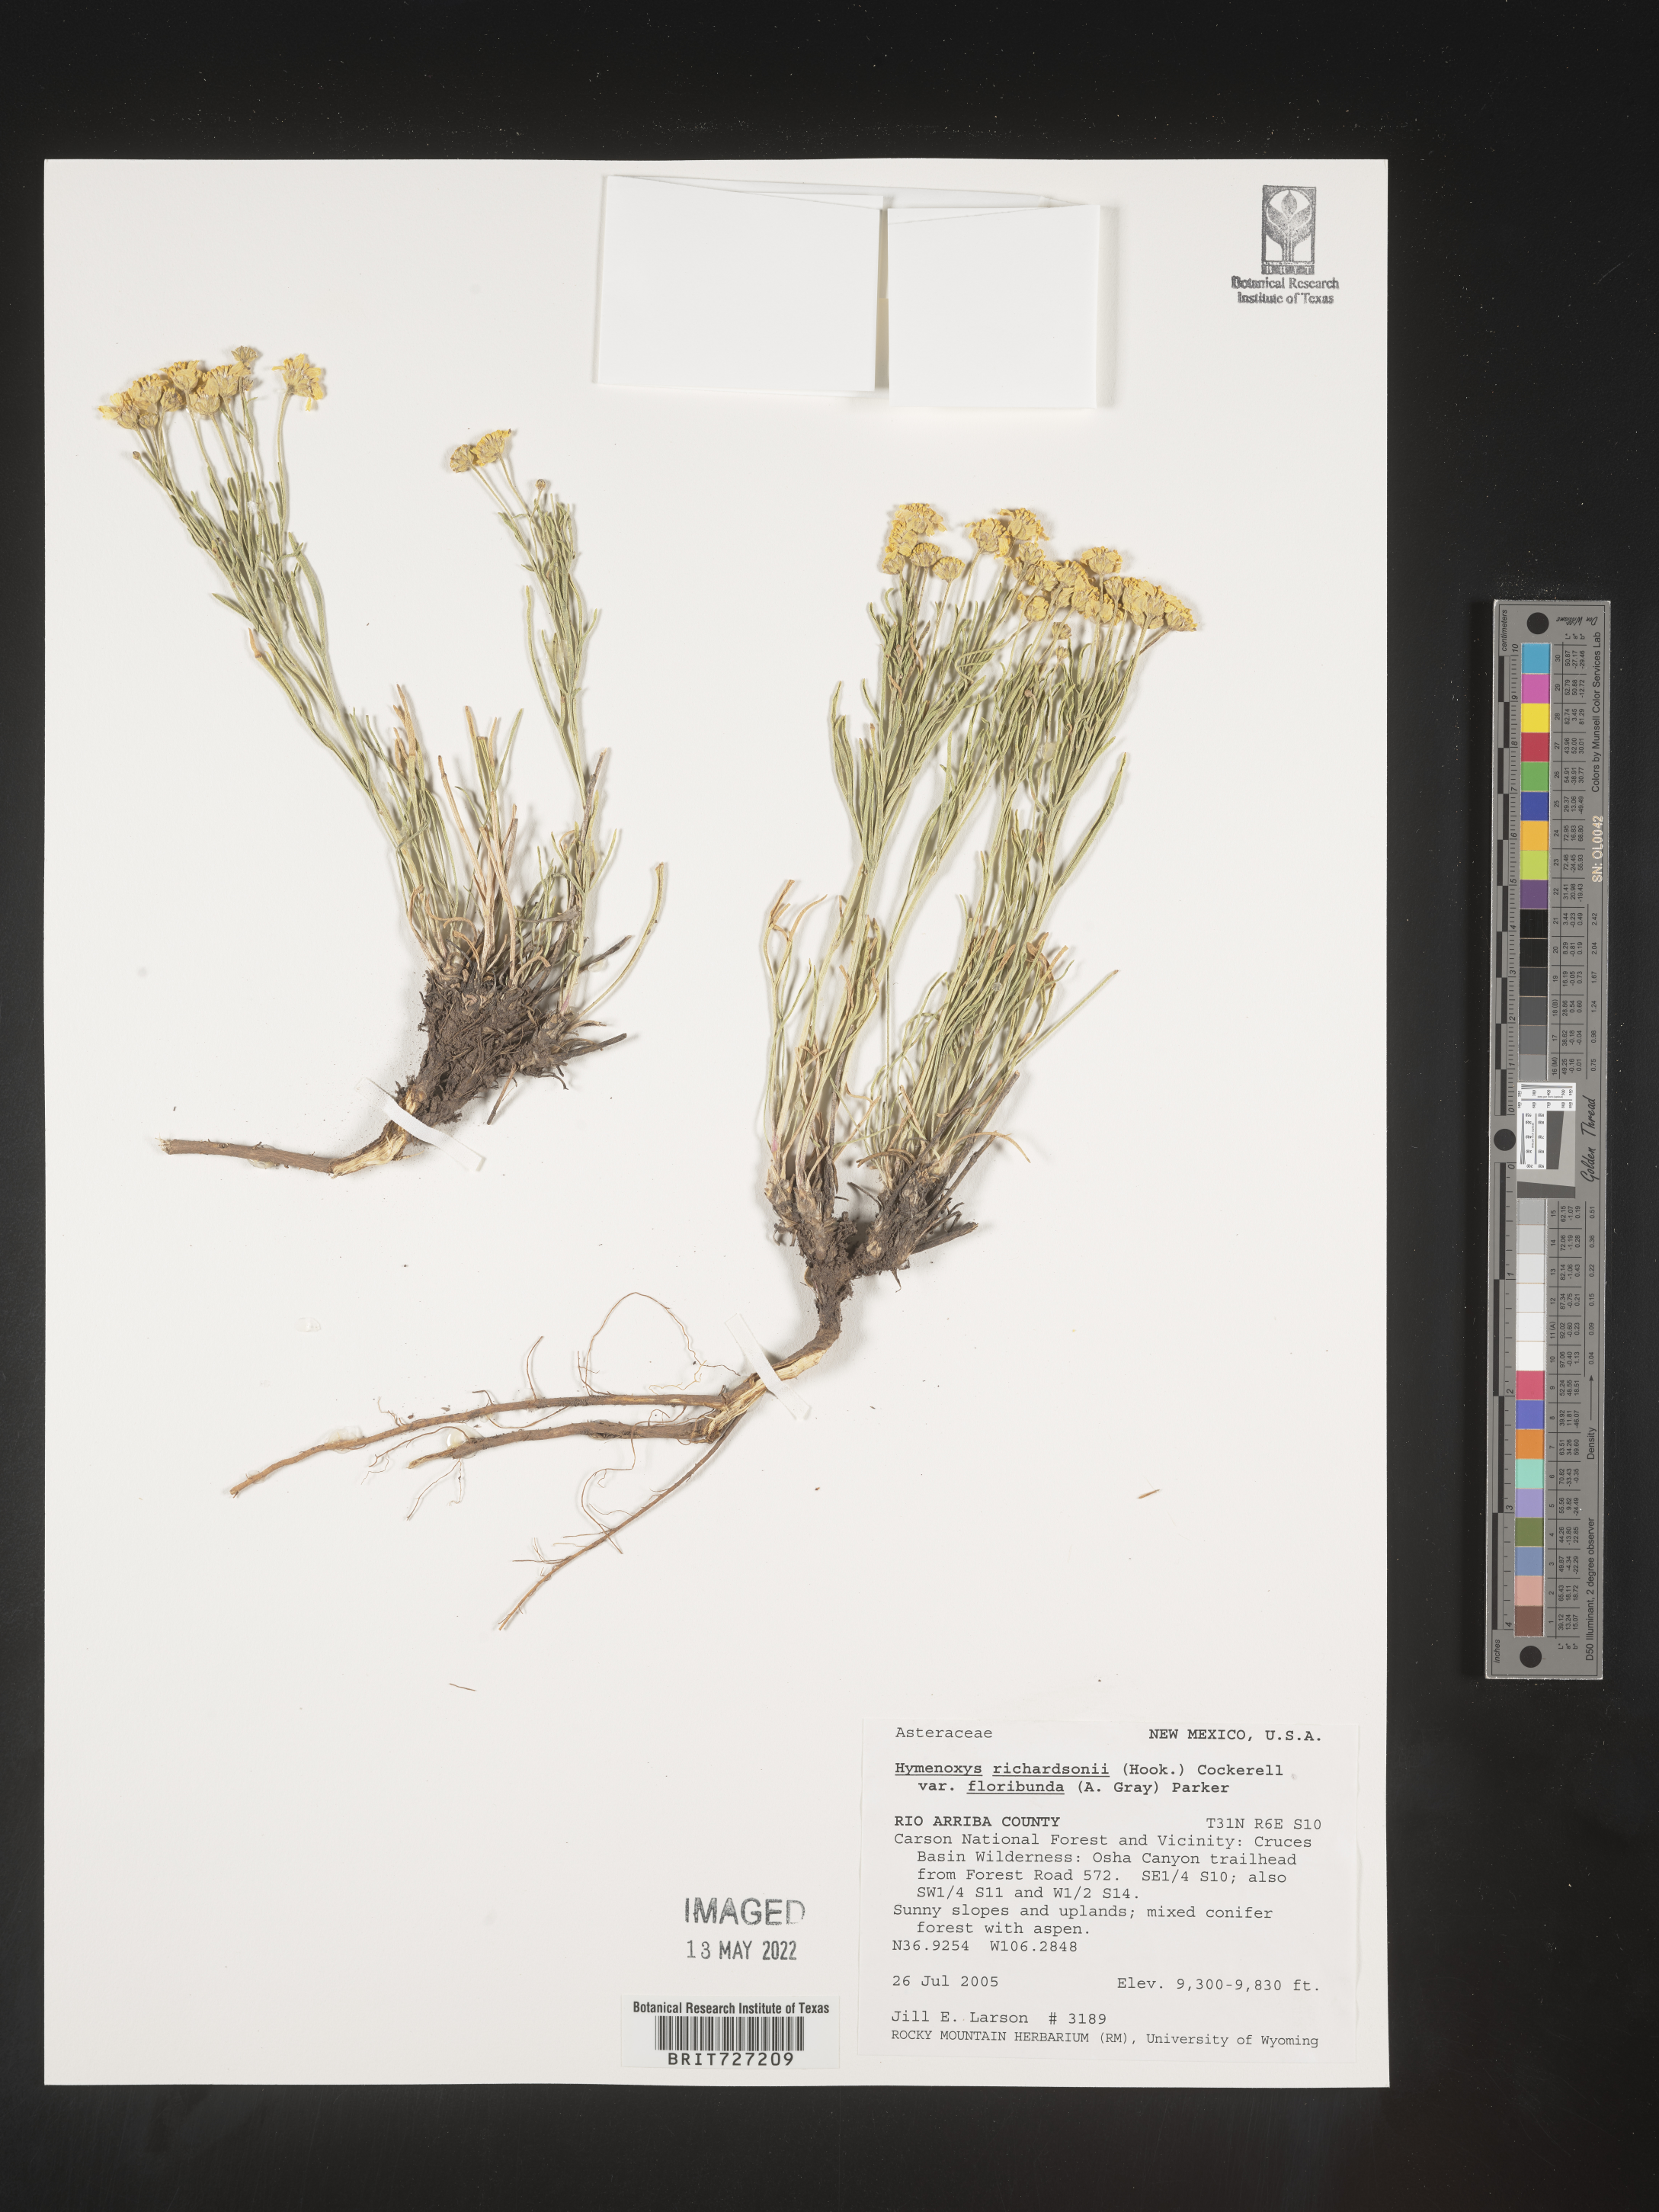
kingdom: Plantae
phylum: Tracheophyta
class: Magnoliopsida
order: Asterales
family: Asteraceae
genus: Hymenoxys
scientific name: Hymenoxys richardsonii
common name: Pingue rubberweed
